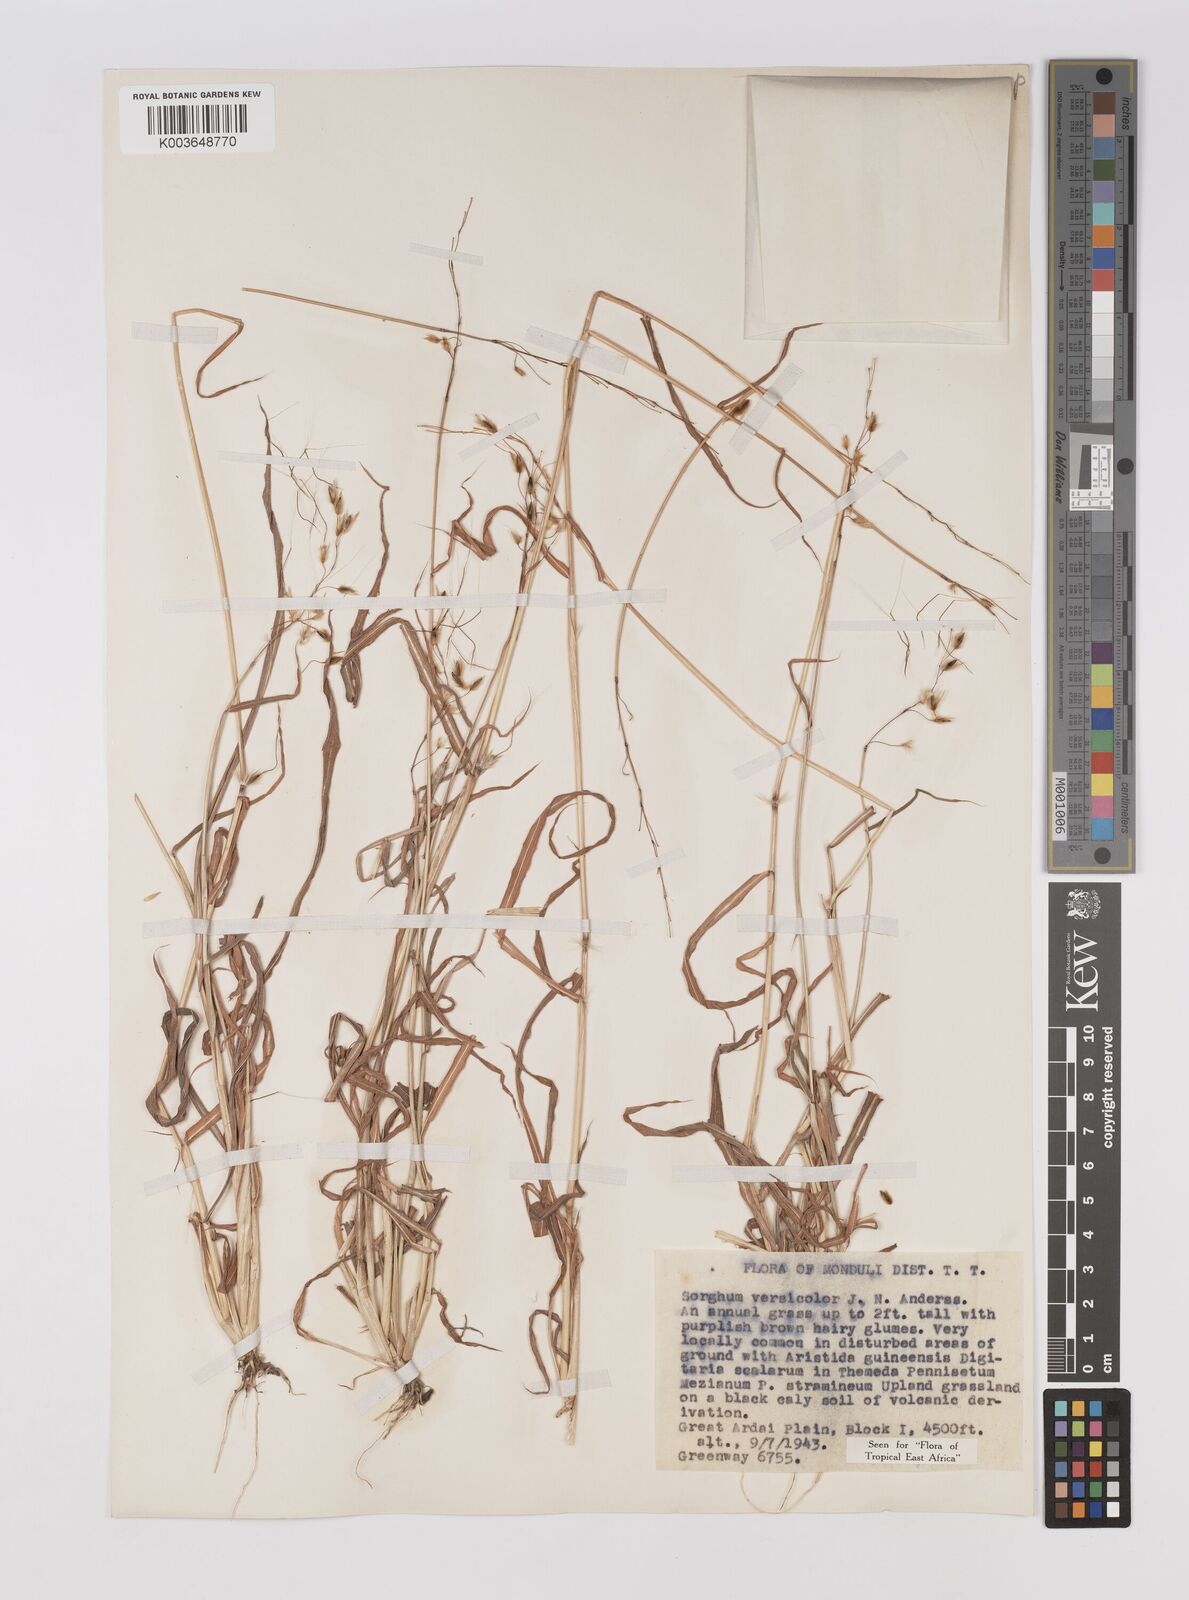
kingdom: Plantae
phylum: Tracheophyta
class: Liliopsida
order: Poales
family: Poaceae
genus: Sarga
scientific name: Sarga versicolor
